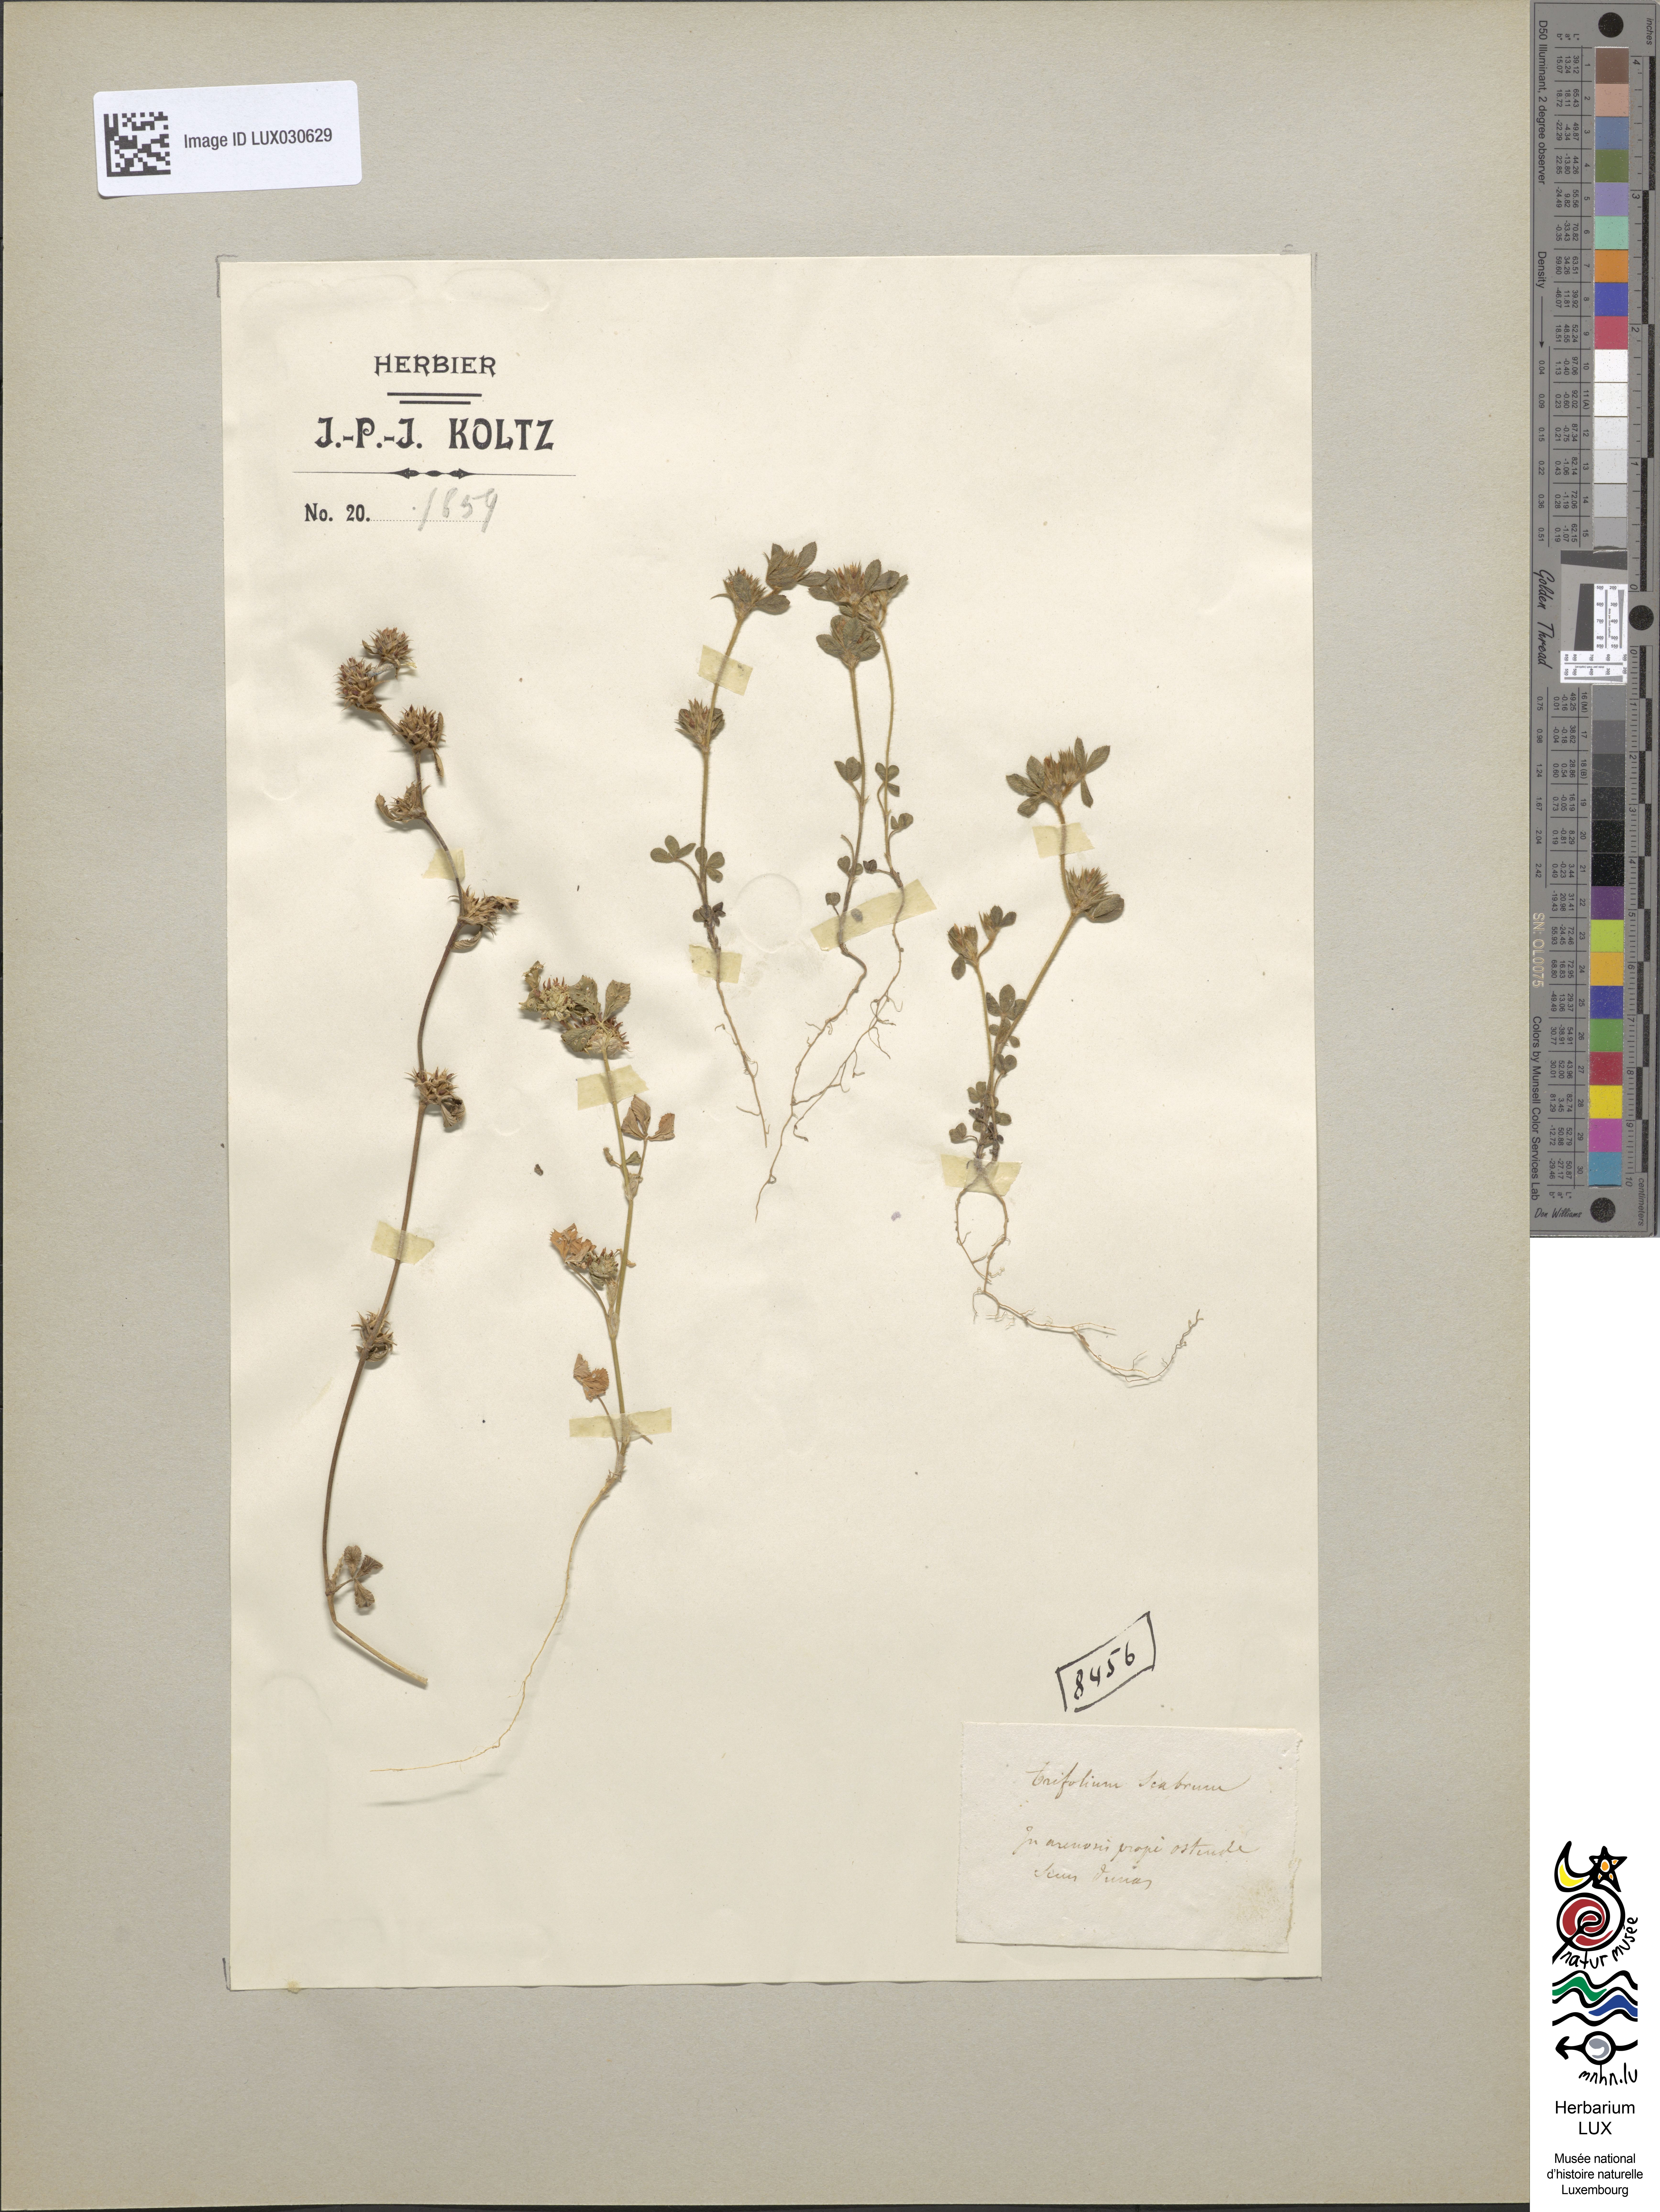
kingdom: Plantae
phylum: Tracheophyta
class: Magnoliopsida
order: Fabales
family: Fabaceae
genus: Trifolium
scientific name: Trifolium scabrum
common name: Rough clover
